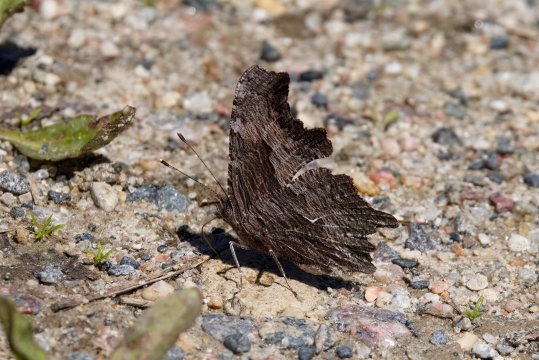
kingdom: Animalia
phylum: Arthropoda
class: Insecta
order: Lepidoptera
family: Nymphalidae
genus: Polygonia
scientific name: Polygonia progne
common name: Gray Comma
